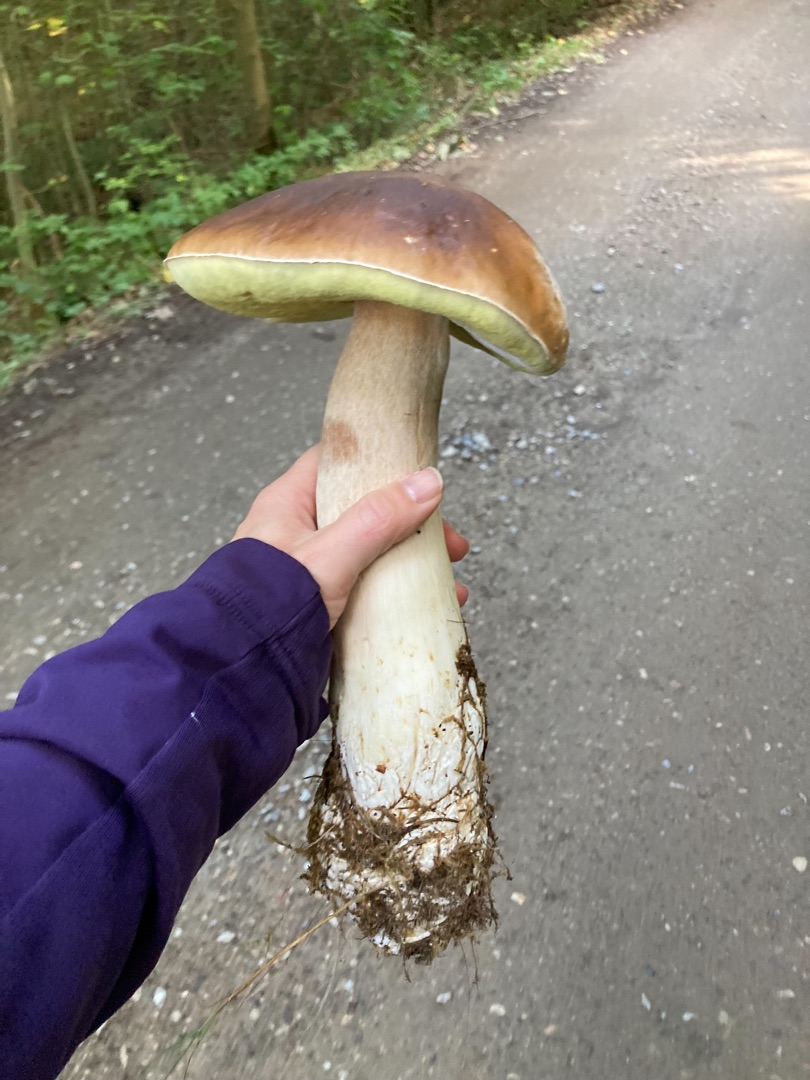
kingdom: Fungi
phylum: Basidiomycota
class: Agaricomycetes
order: Boletales
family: Boletaceae
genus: Boletus
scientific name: Boletus edulis
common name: Spiselig rørhat/karl johan
